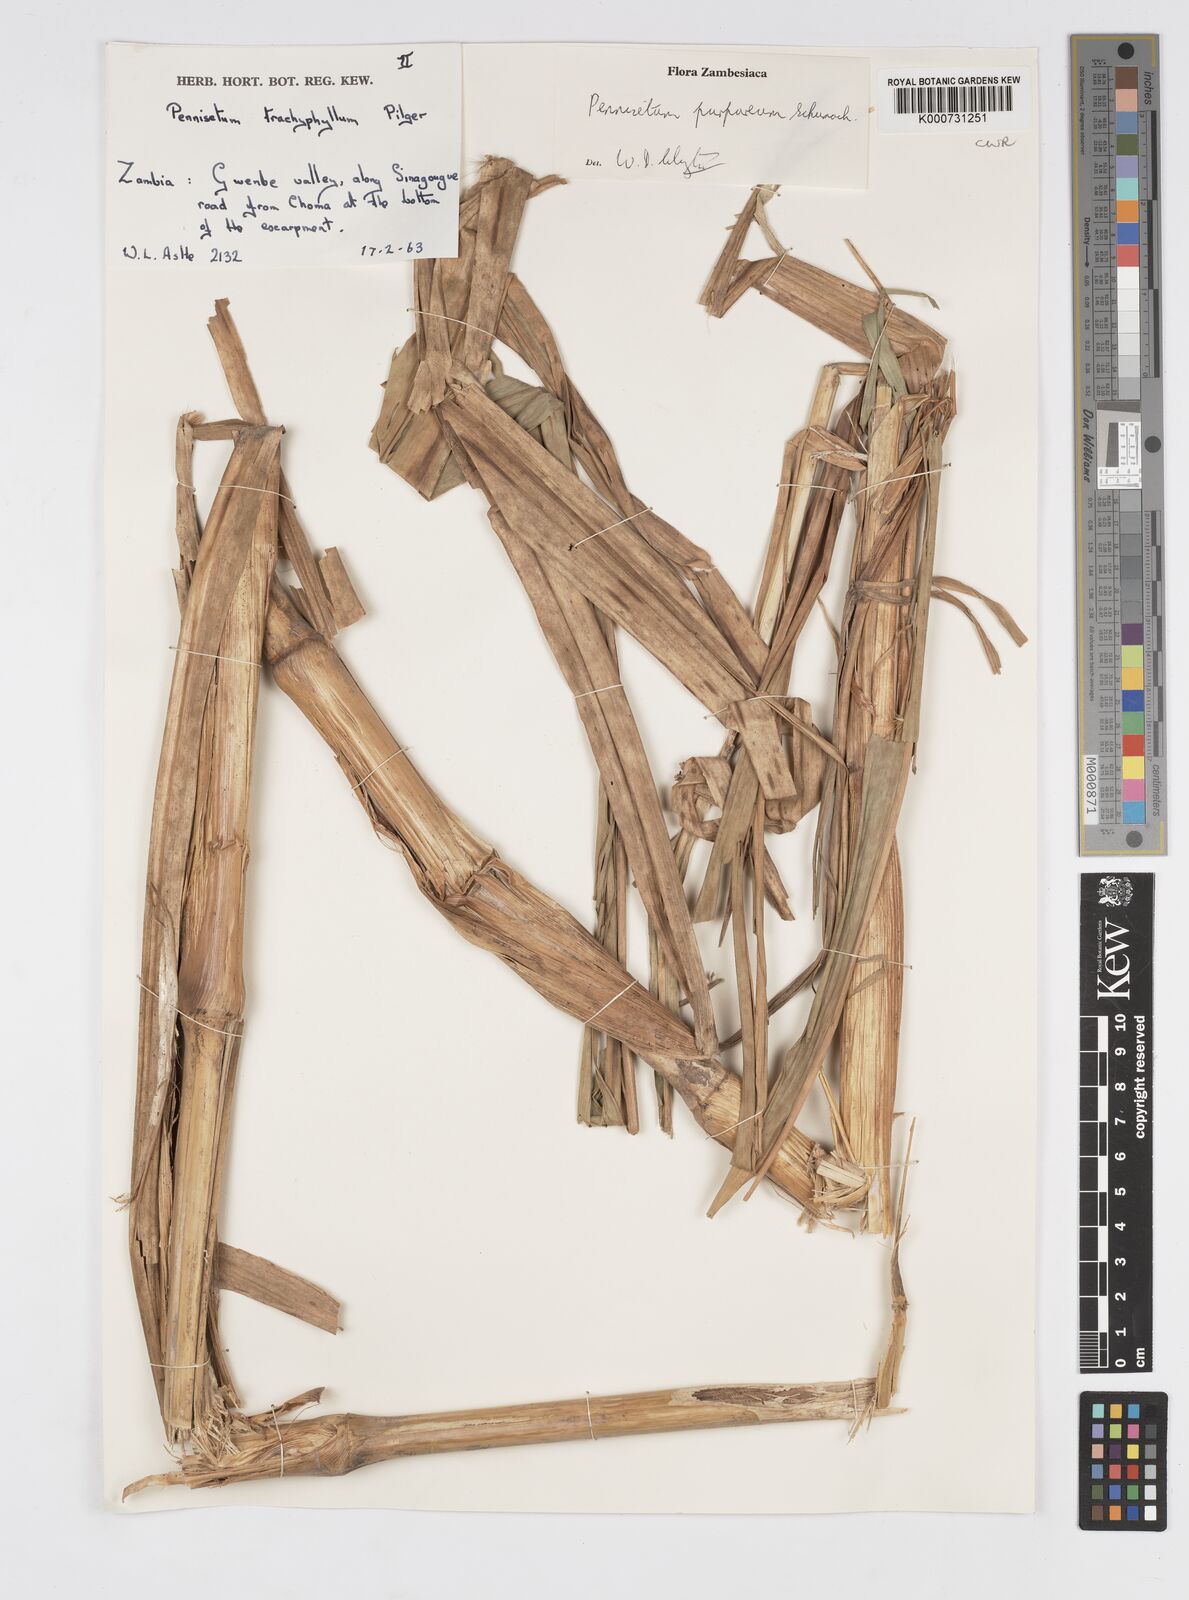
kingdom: Plantae
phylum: Tracheophyta
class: Liliopsida
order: Poales
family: Poaceae
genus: Cenchrus
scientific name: Cenchrus purpureus
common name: Elephant grass
